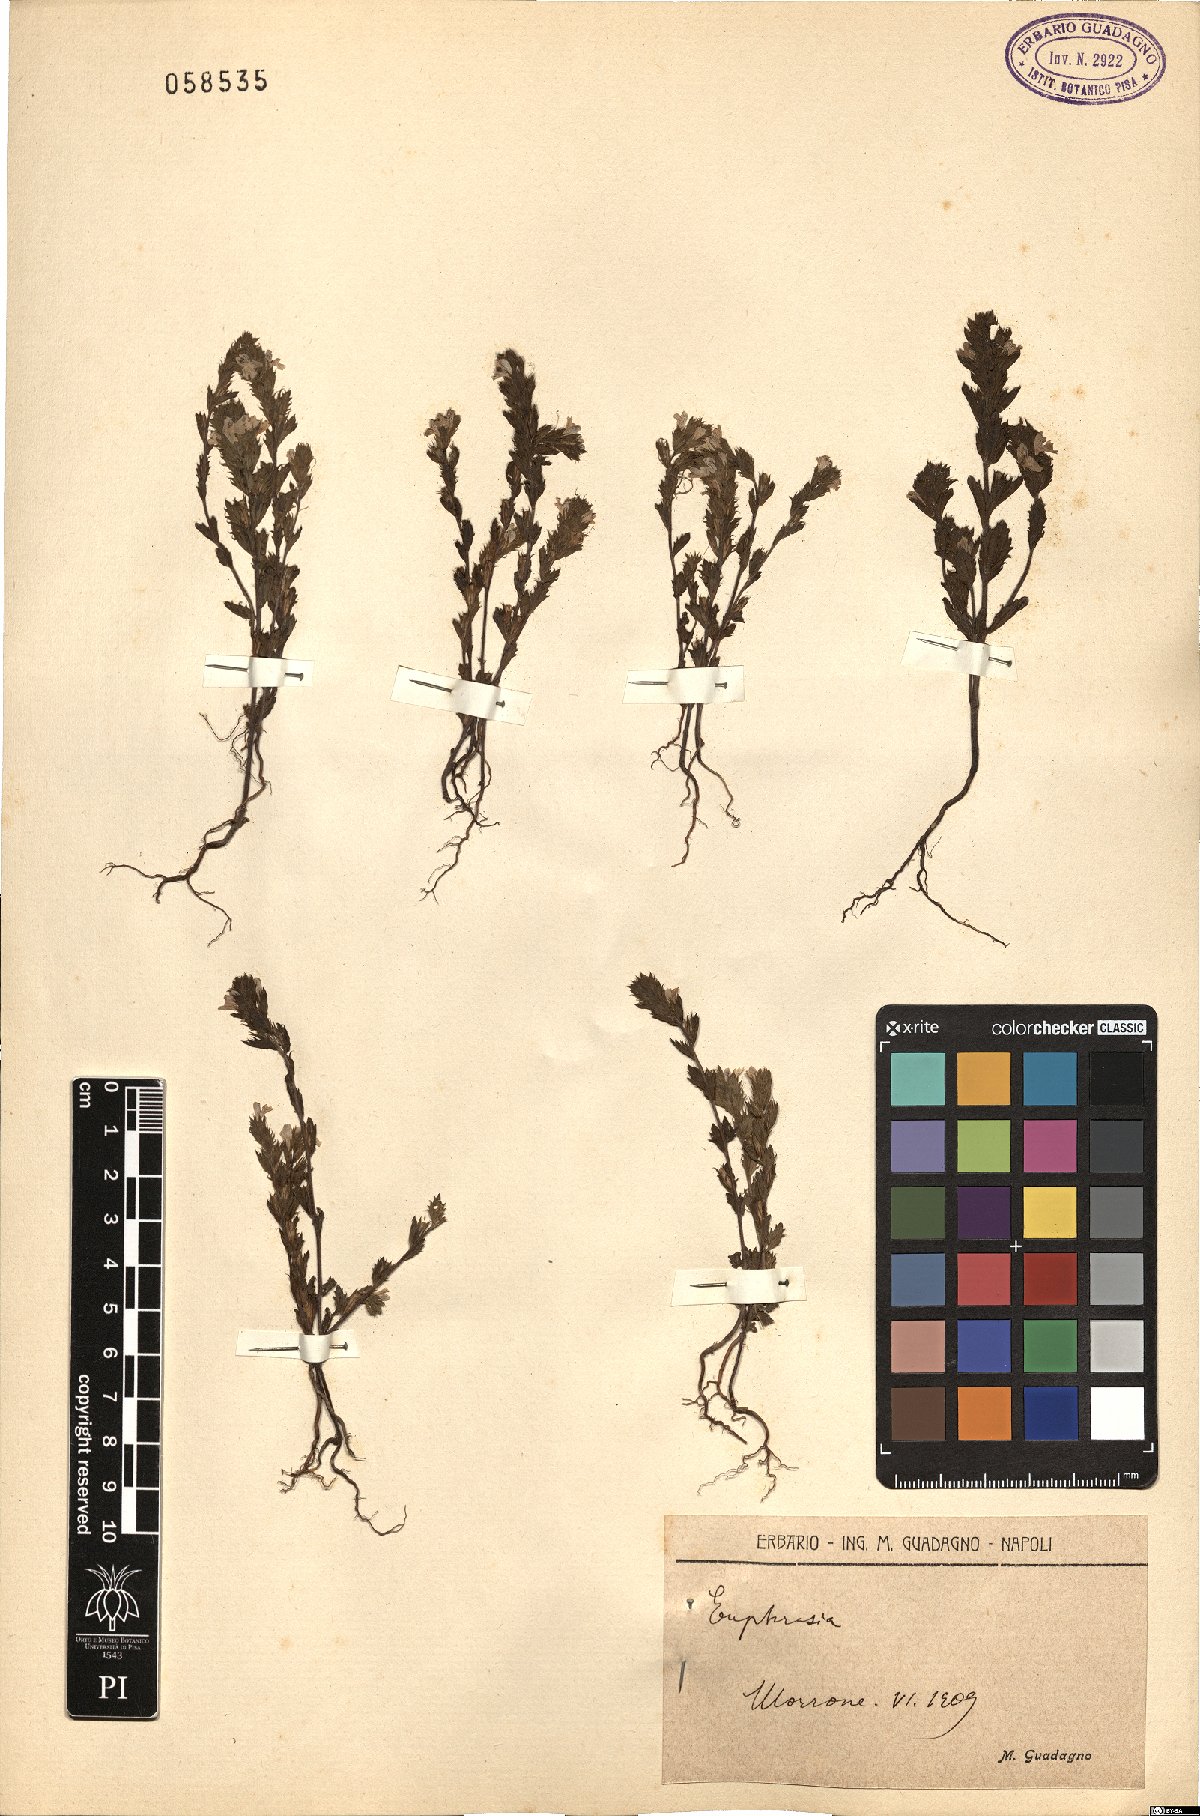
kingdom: Plantae
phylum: Tracheophyta
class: Magnoliopsida
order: Lamiales
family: Orobanchaceae
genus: Euphrasia
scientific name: Euphrasia
